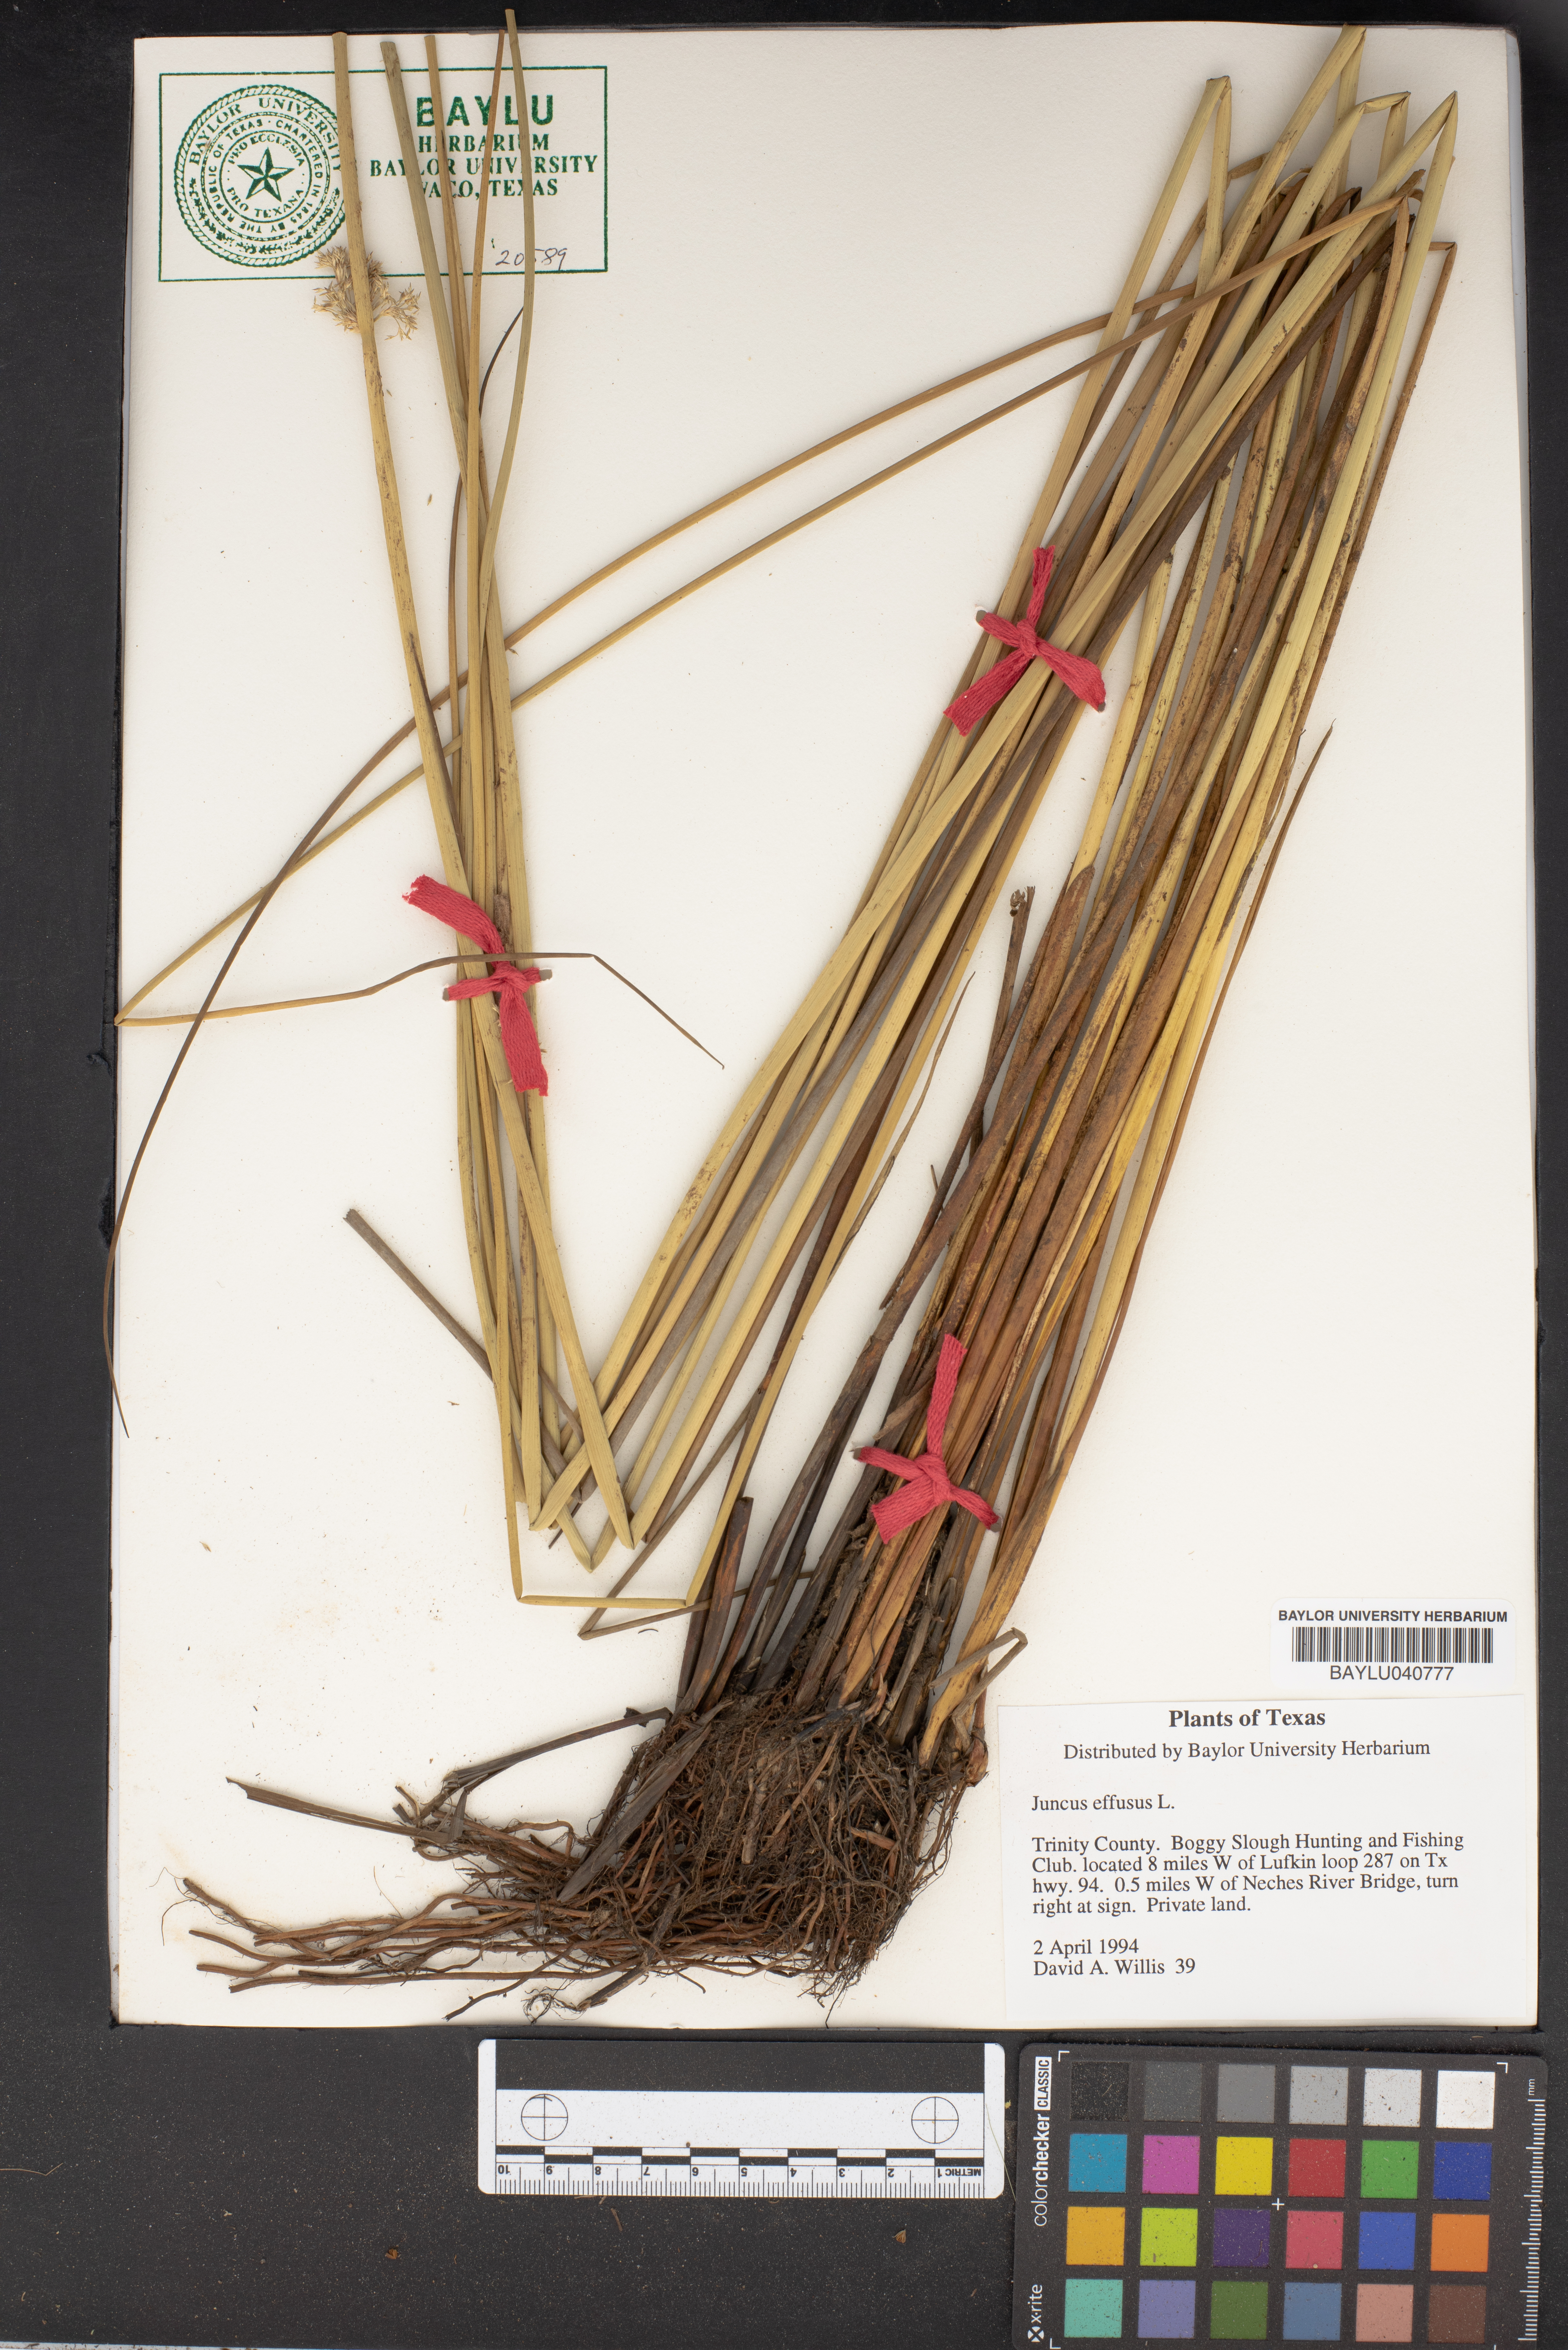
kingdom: Plantae
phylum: Tracheophyta
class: Liliopsida
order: Poales
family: Juncaceae
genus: Juncus
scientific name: Juncus effusus
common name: Soft rush
